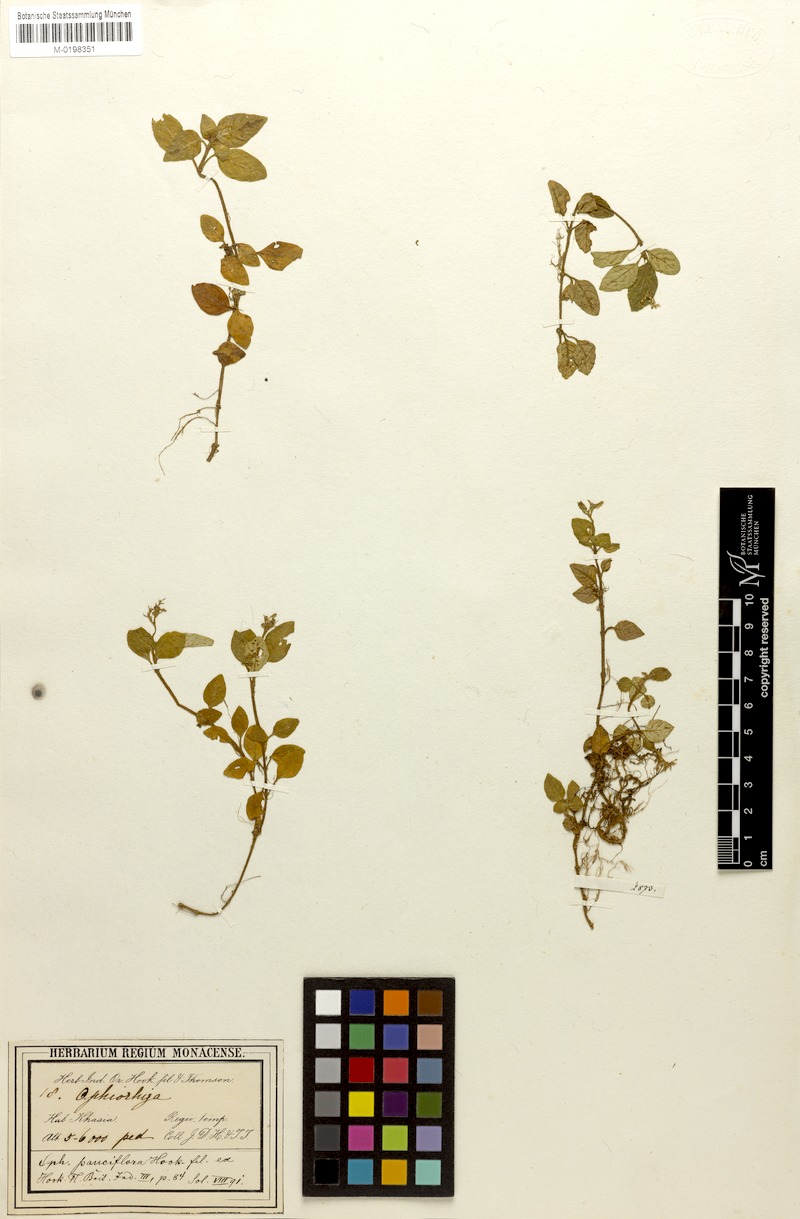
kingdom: Plantae
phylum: Tracheophyta
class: Magnoliopsida
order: Gentianales
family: Rubiaceae
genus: Ophiorrhiza
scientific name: Ophiorrhiza pauciflora
